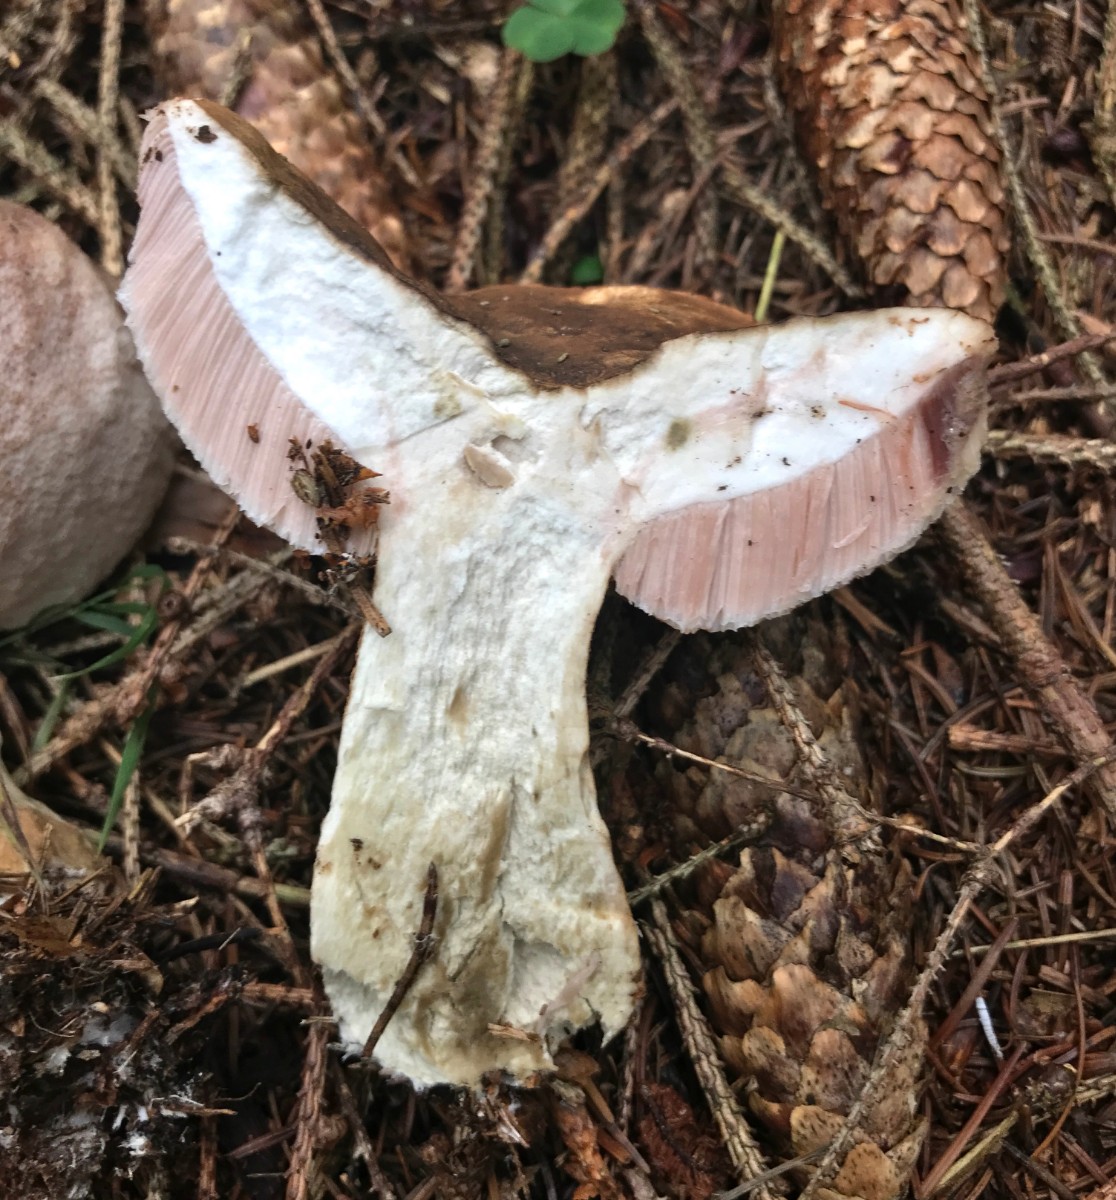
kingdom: Fungi
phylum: Basidiomycota
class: Agaricomycetes
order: Boletales
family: Boletaceae
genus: Tylopilus
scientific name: Tylopilus felleus
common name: galderørhat
